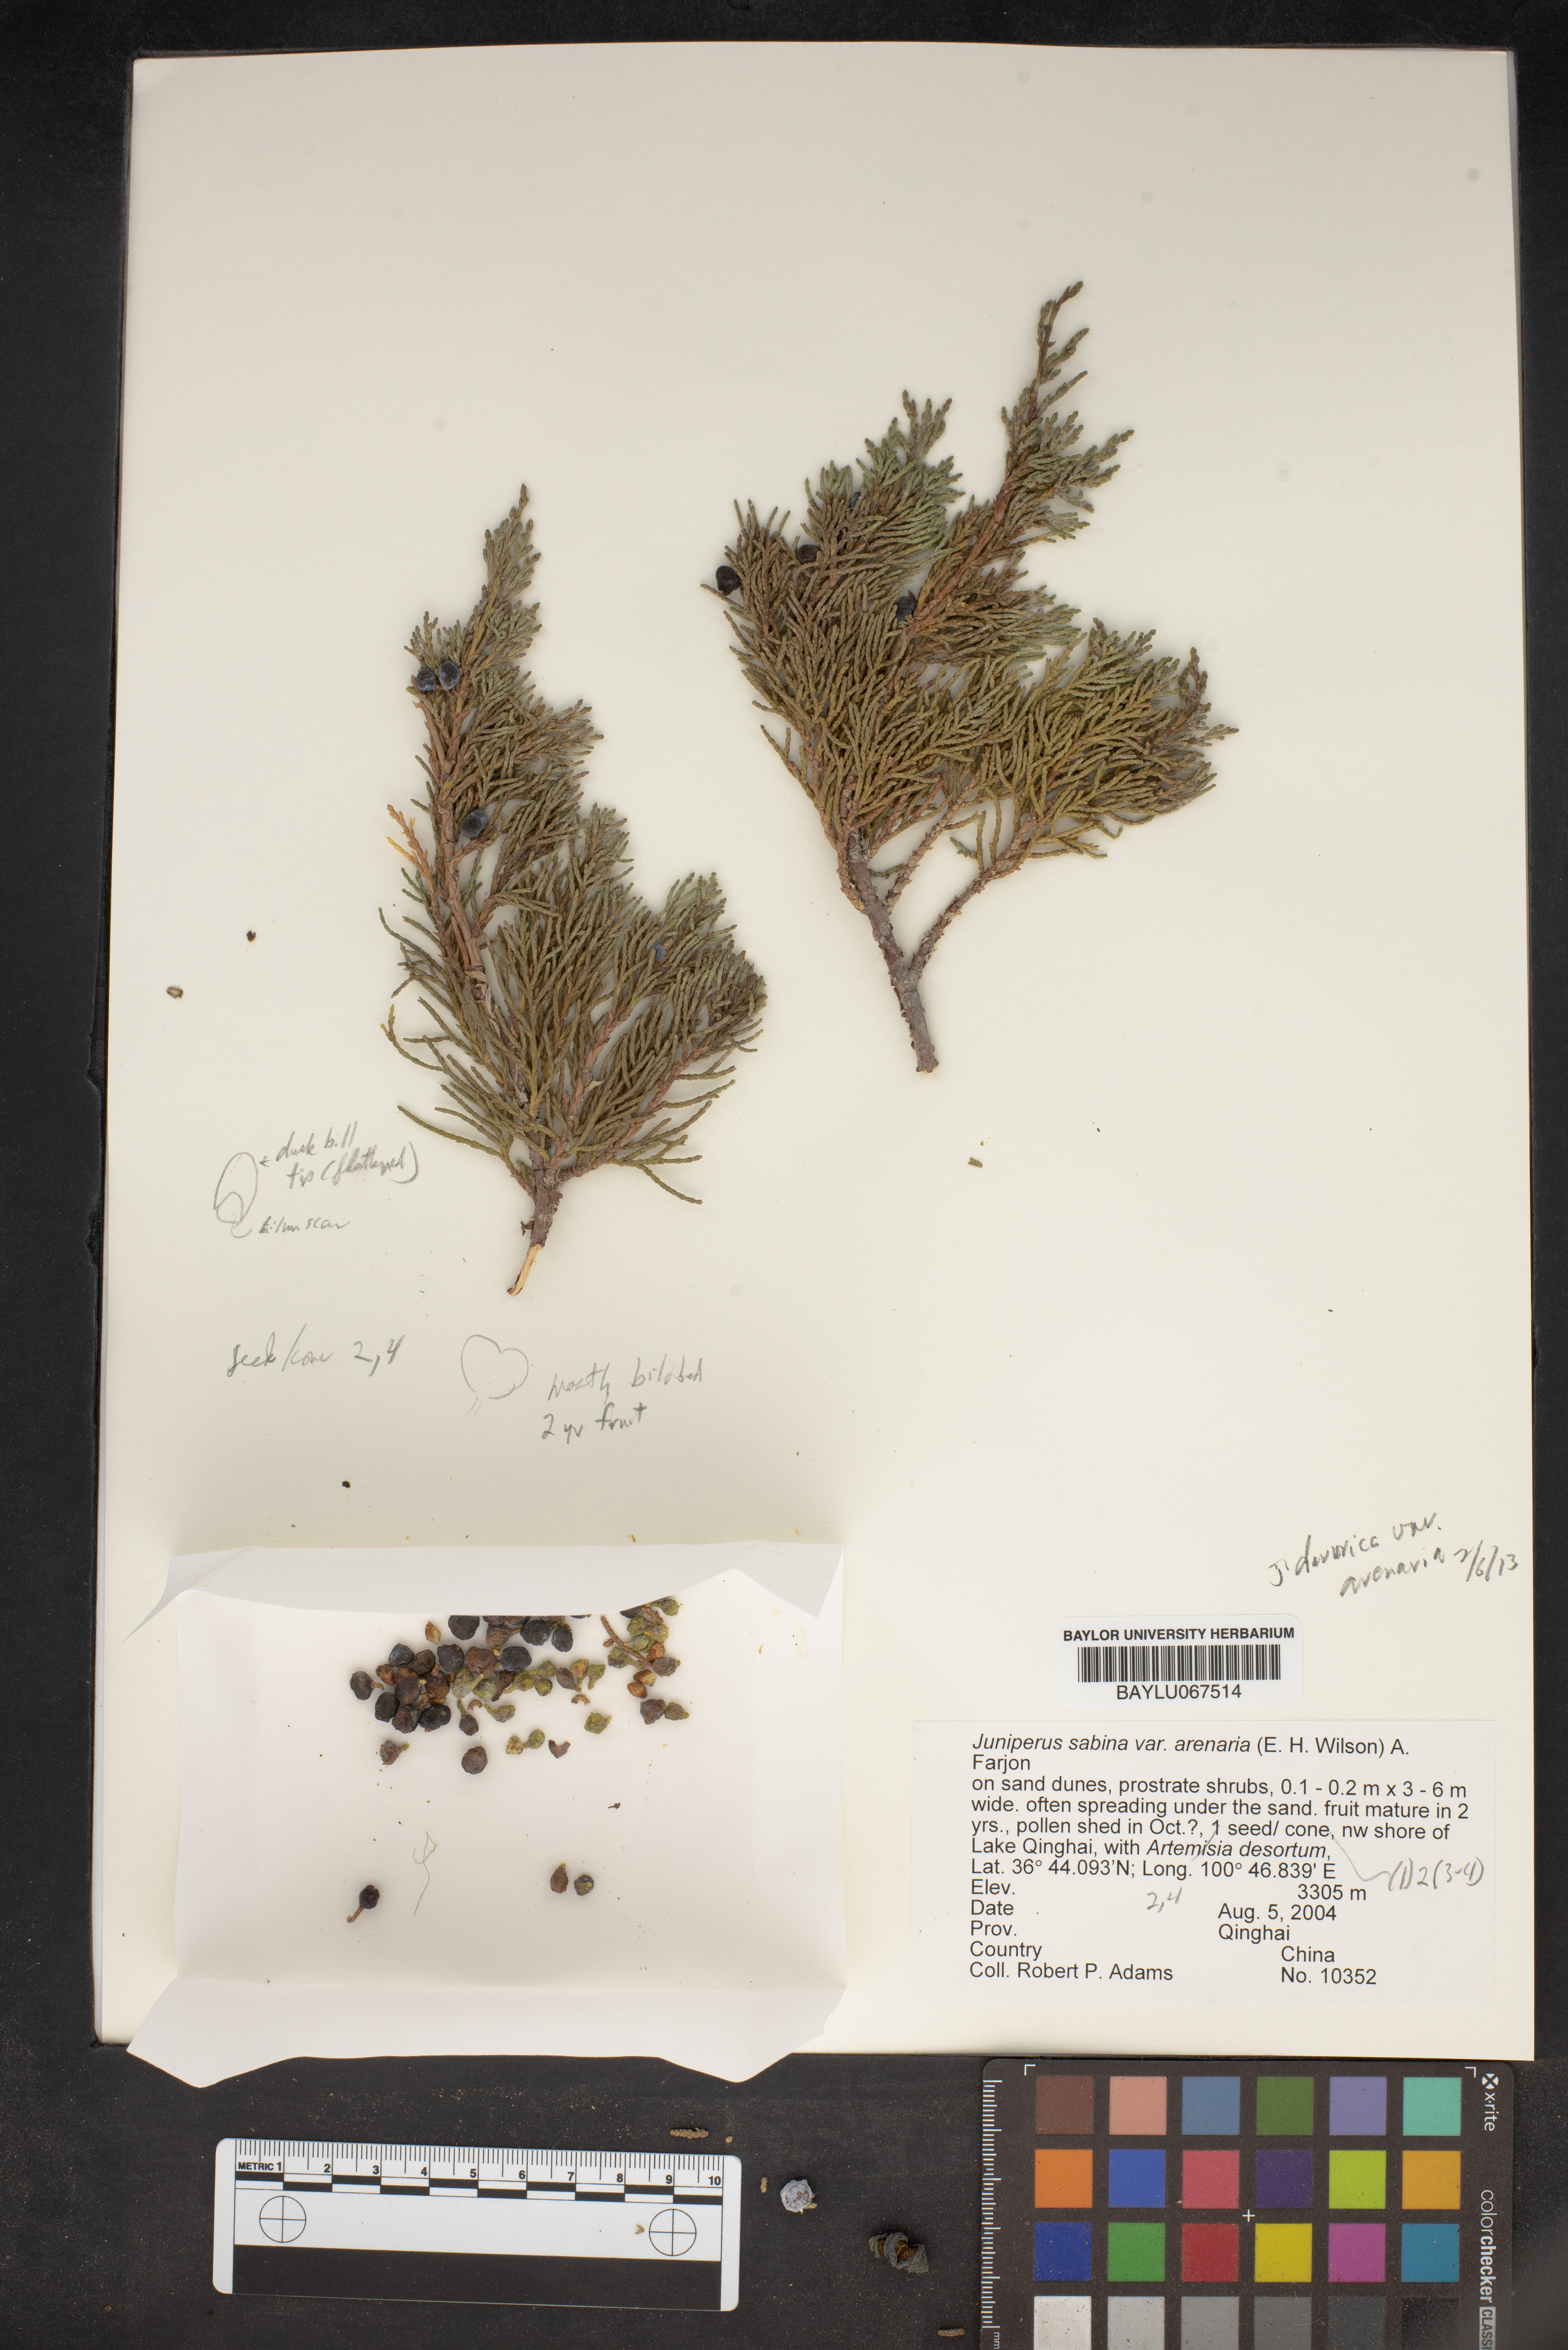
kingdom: Plantae
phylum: Tracheophyta
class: Pinopsida
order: Pinales
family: Cupressaceae
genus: Juniperus
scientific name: Juniperus sabina
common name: Savin
